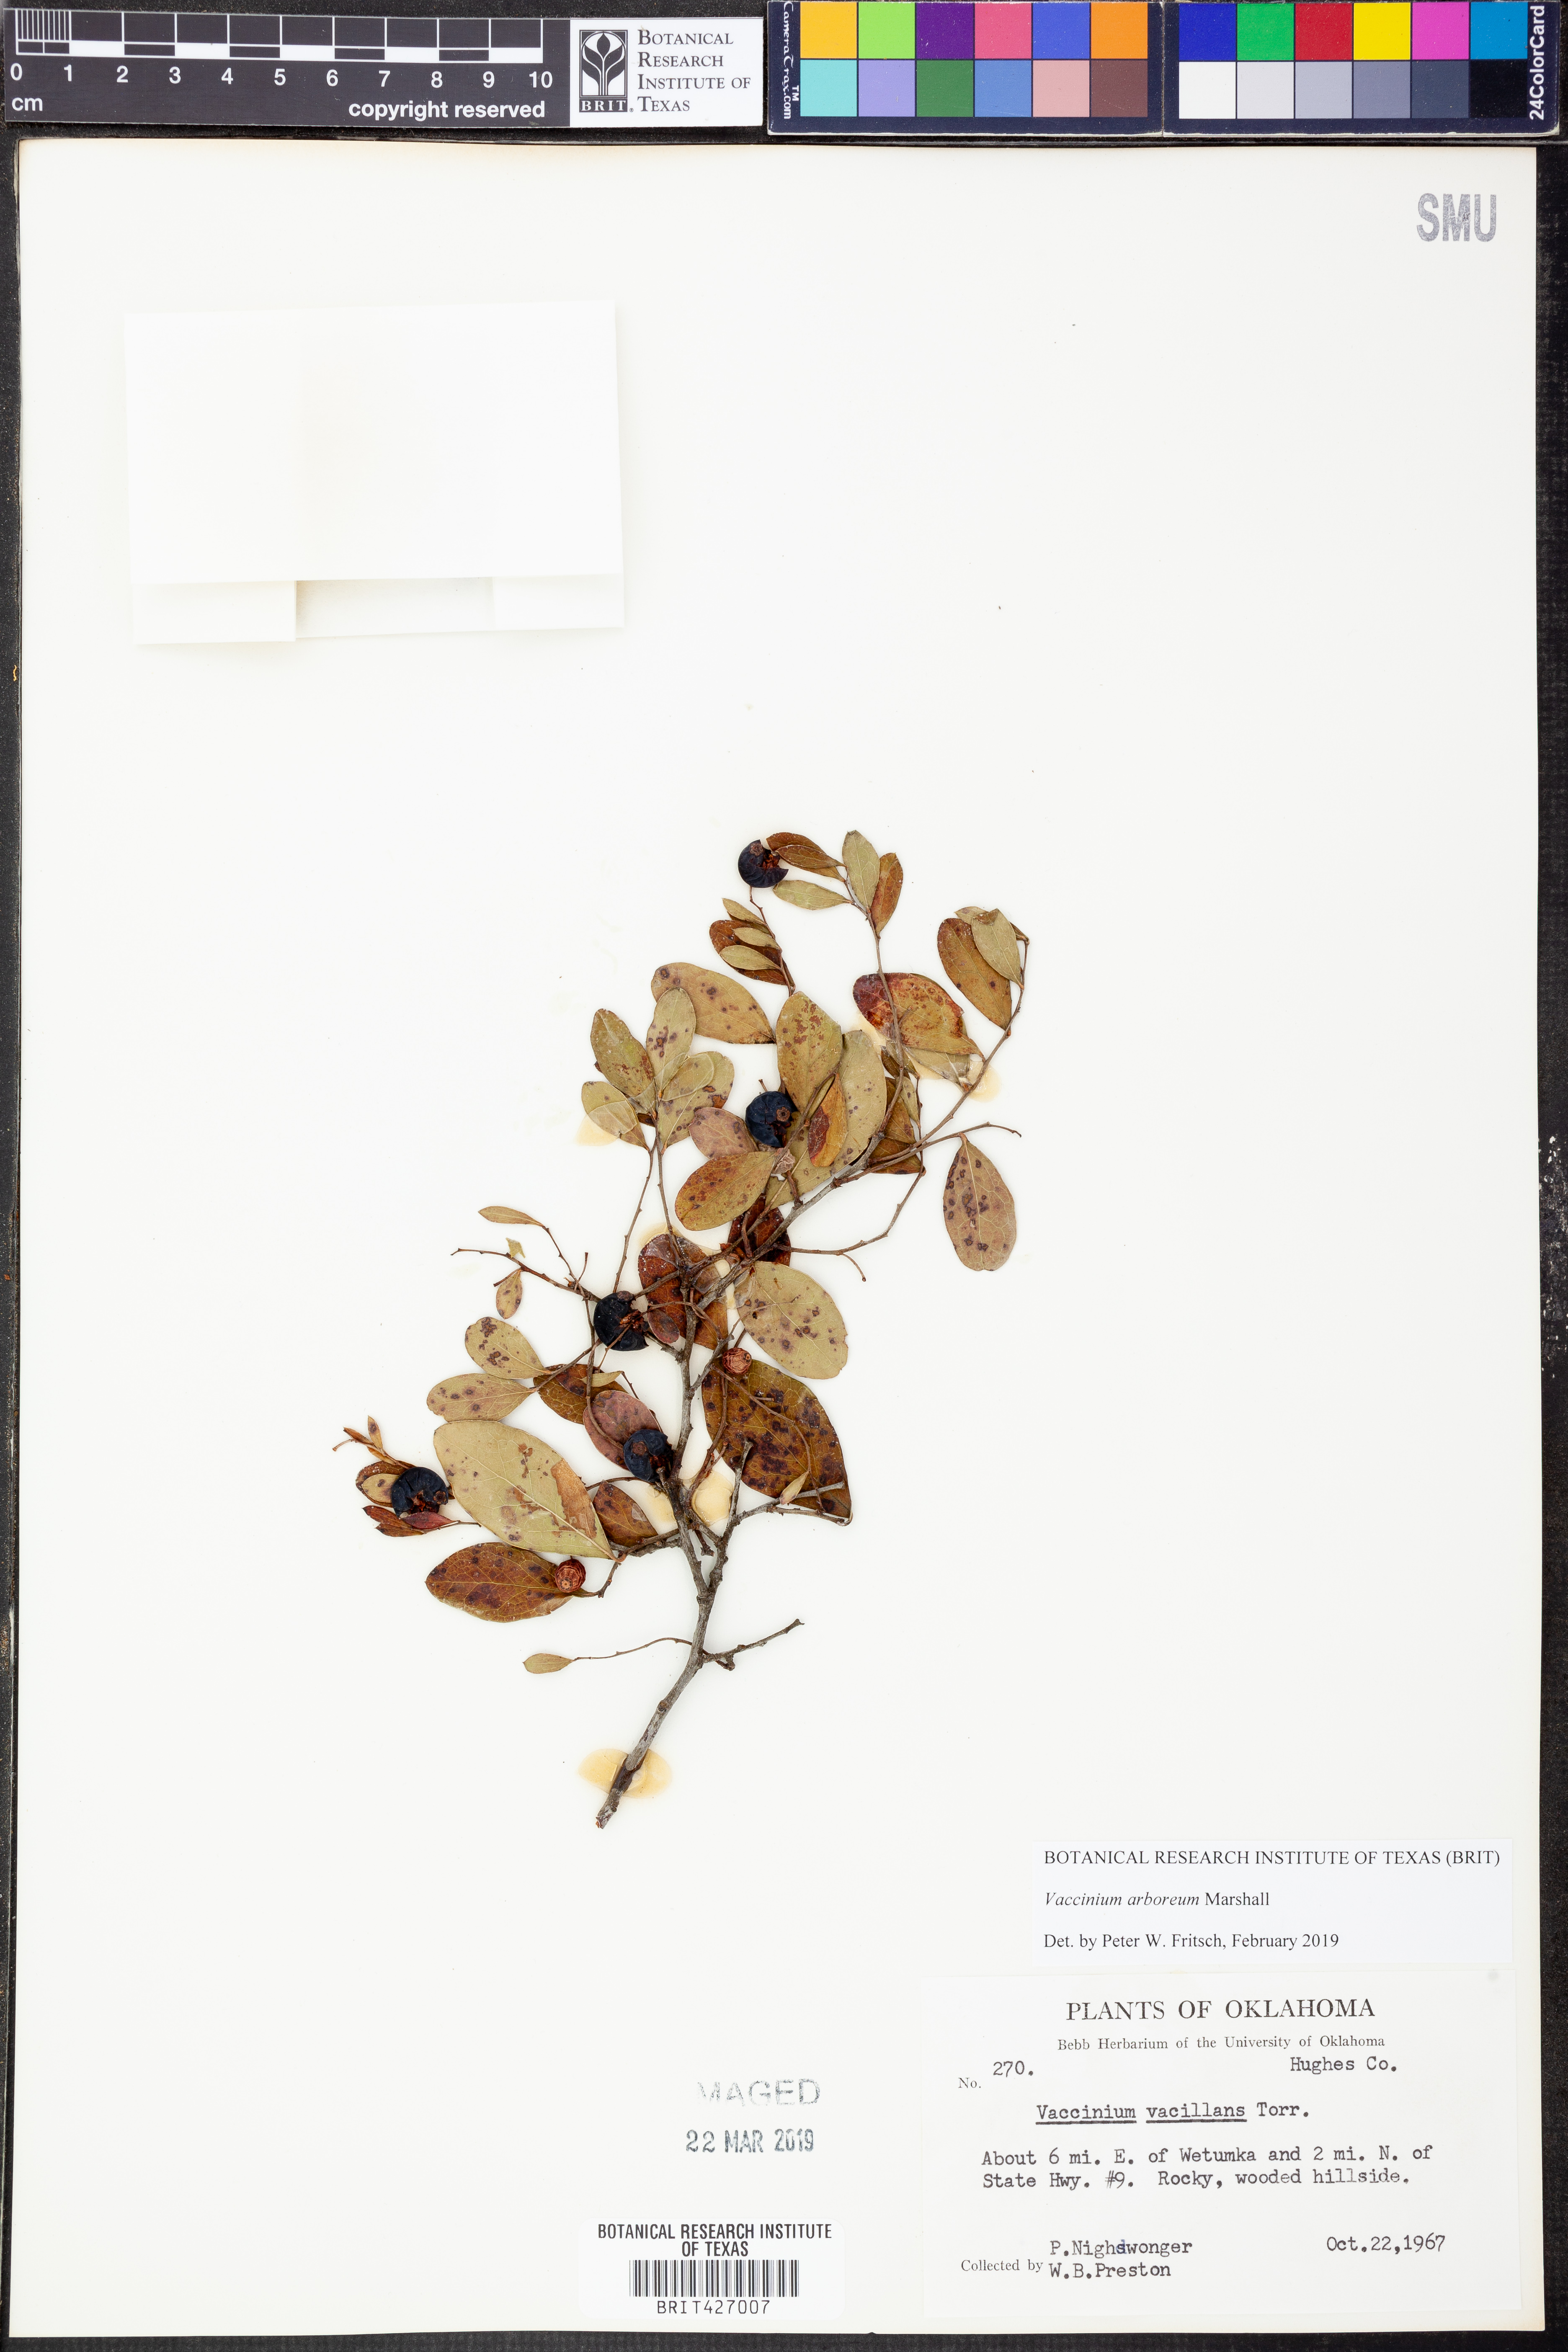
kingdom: Plantae
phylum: Tracheophyta
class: Magnoliopsida
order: Ericales
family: Ericaceae
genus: Vaccinium
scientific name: Vaccinium arboreum
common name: Farkleberry
